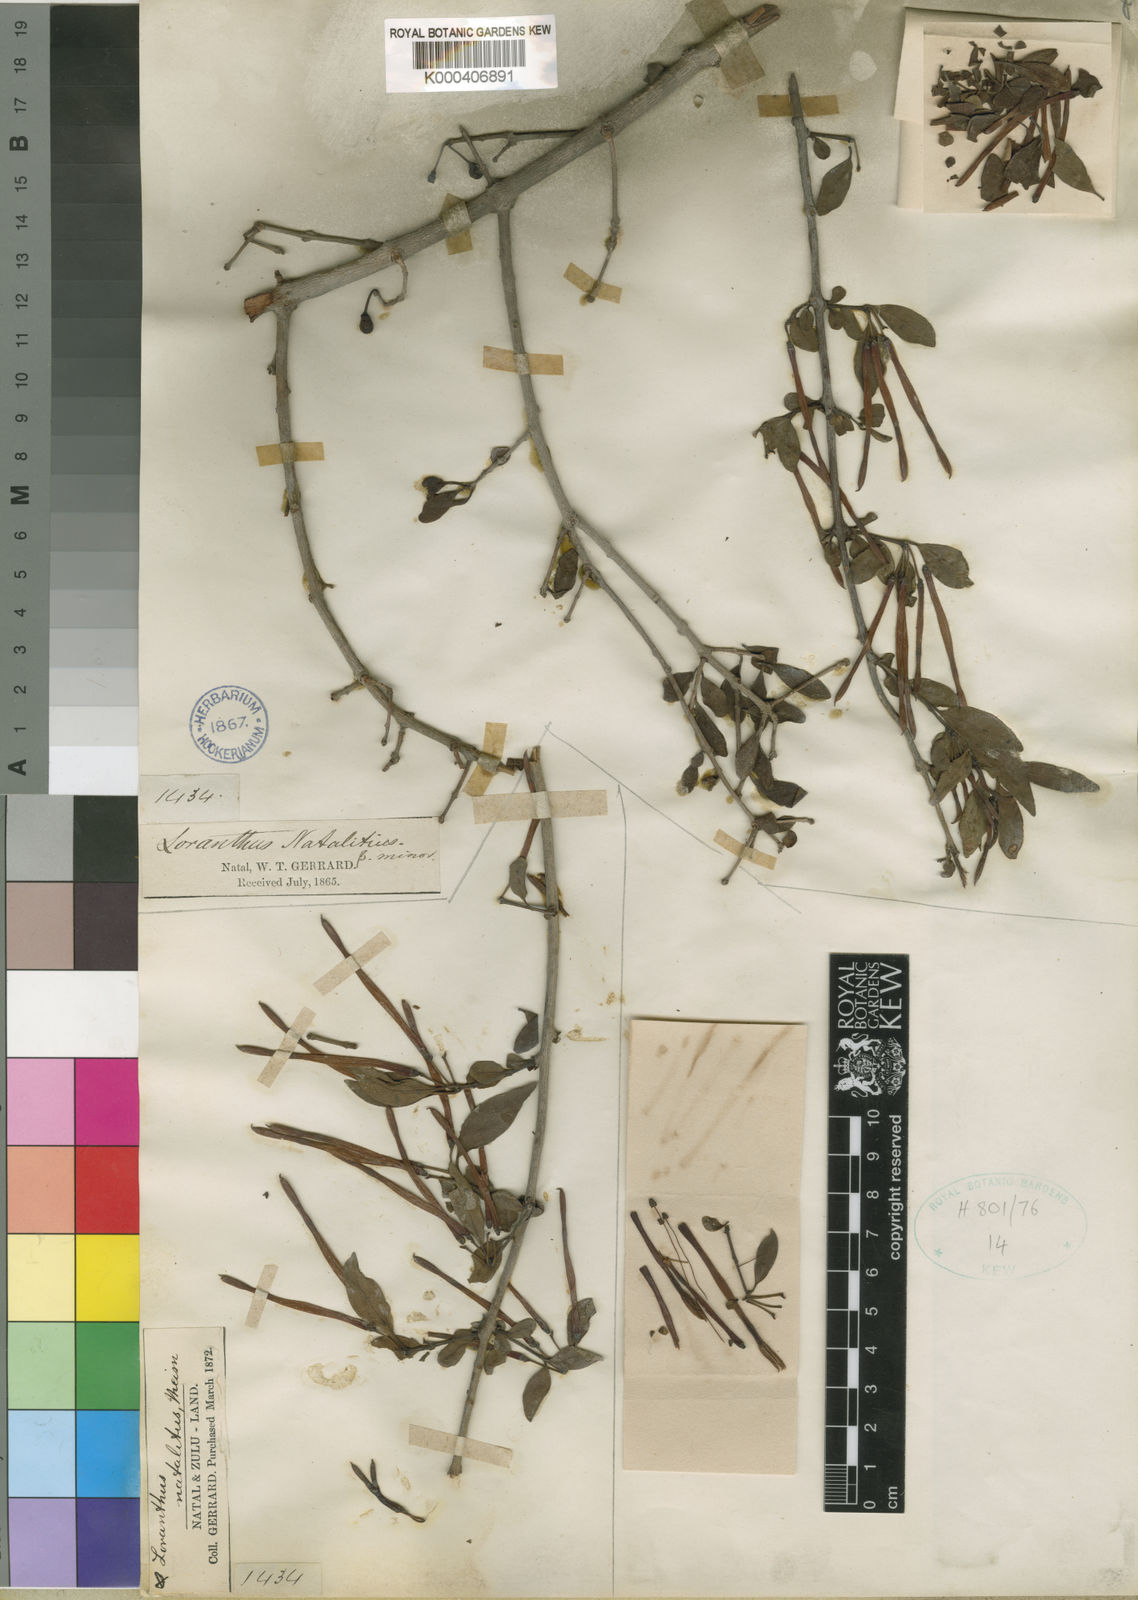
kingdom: Plantae
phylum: Tracheophyta
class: Magnoliopsida
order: Santalales
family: Loranthaceae
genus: Agelanthus
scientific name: Agelanthus gracilis
